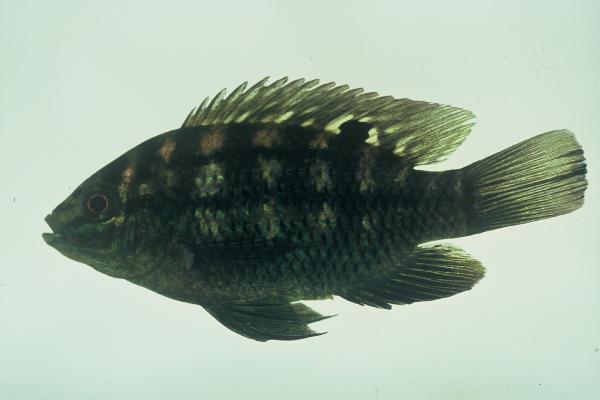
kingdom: Animalia
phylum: Chordata
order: Perciformes
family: Cichlidae
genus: Tilapia
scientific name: Tilapia sparrmanii
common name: Banded tilapia
